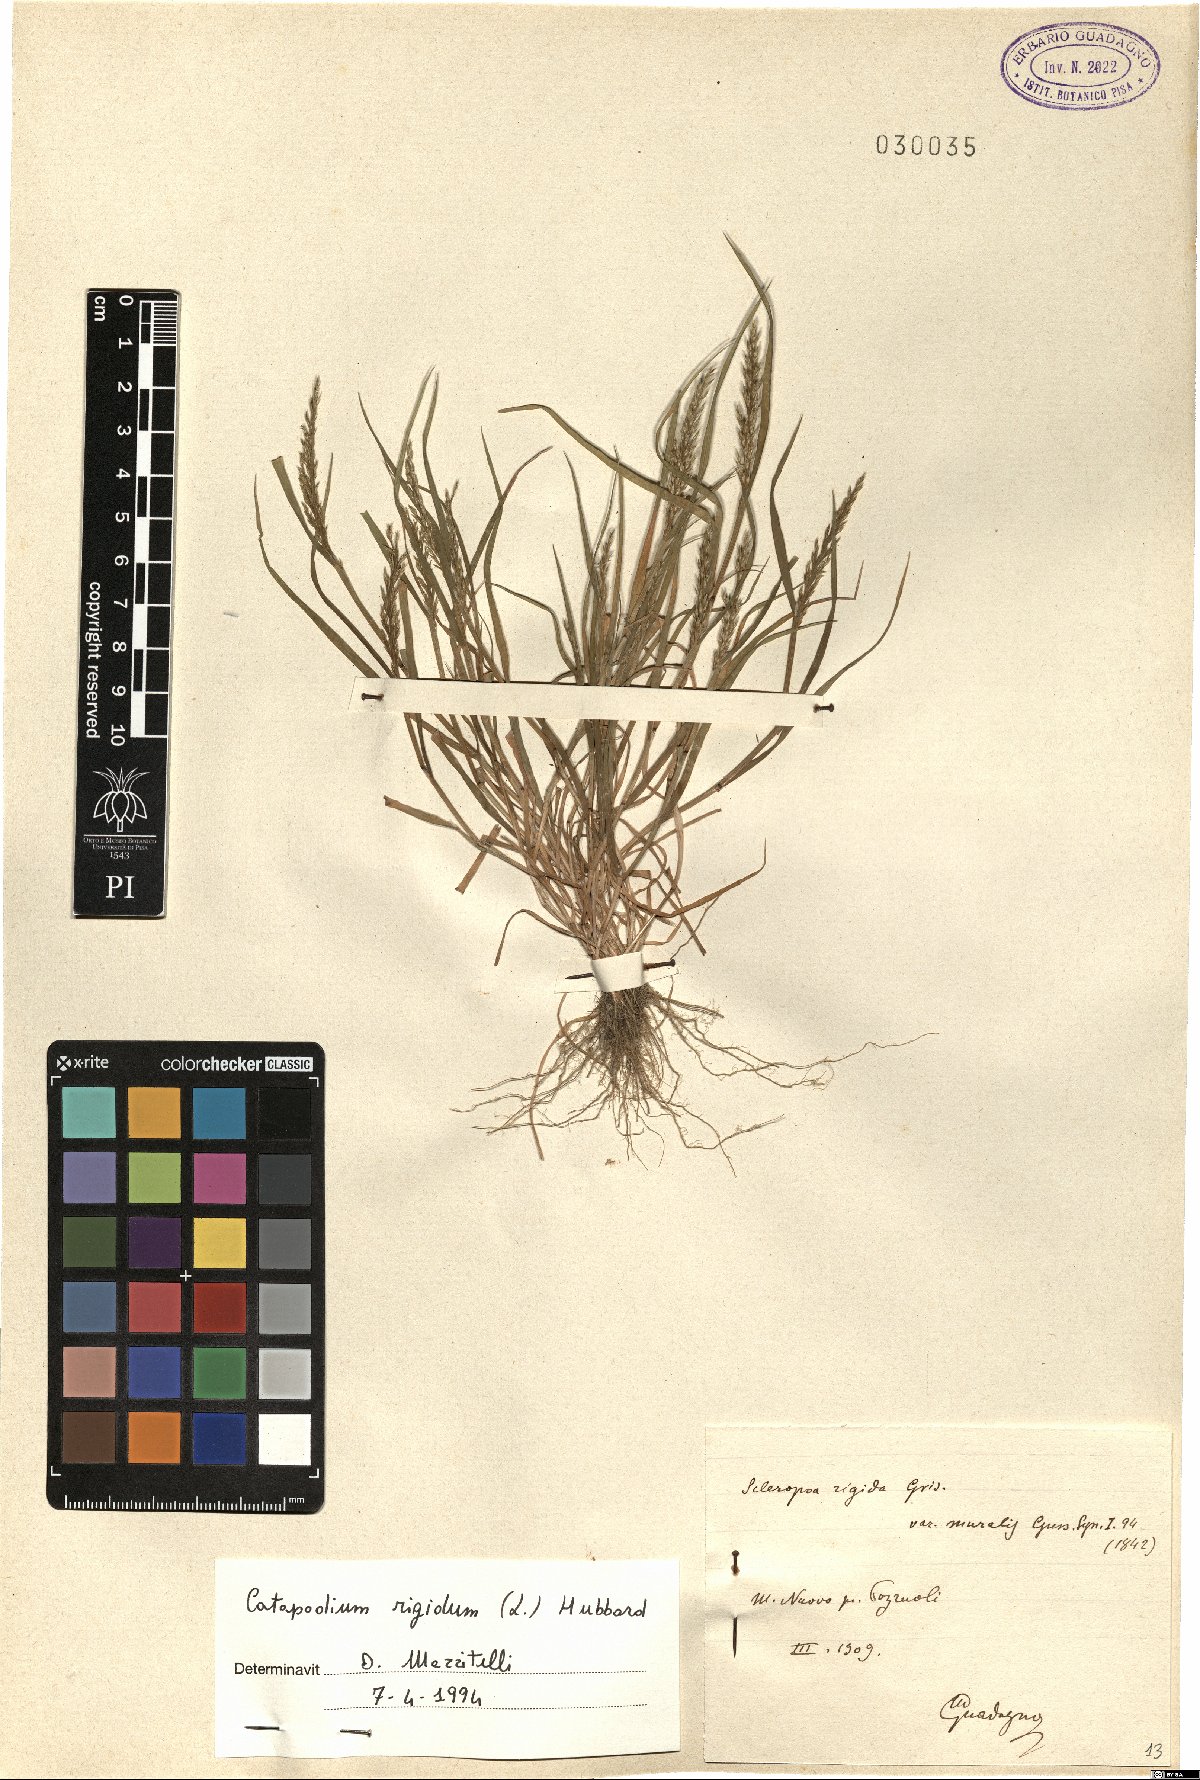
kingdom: Plantae
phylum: Tracheophyta
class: Liliopsida
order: Poales
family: Poaceae
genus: Catapodium
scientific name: Catapodium rigidum
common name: Fern-grass
